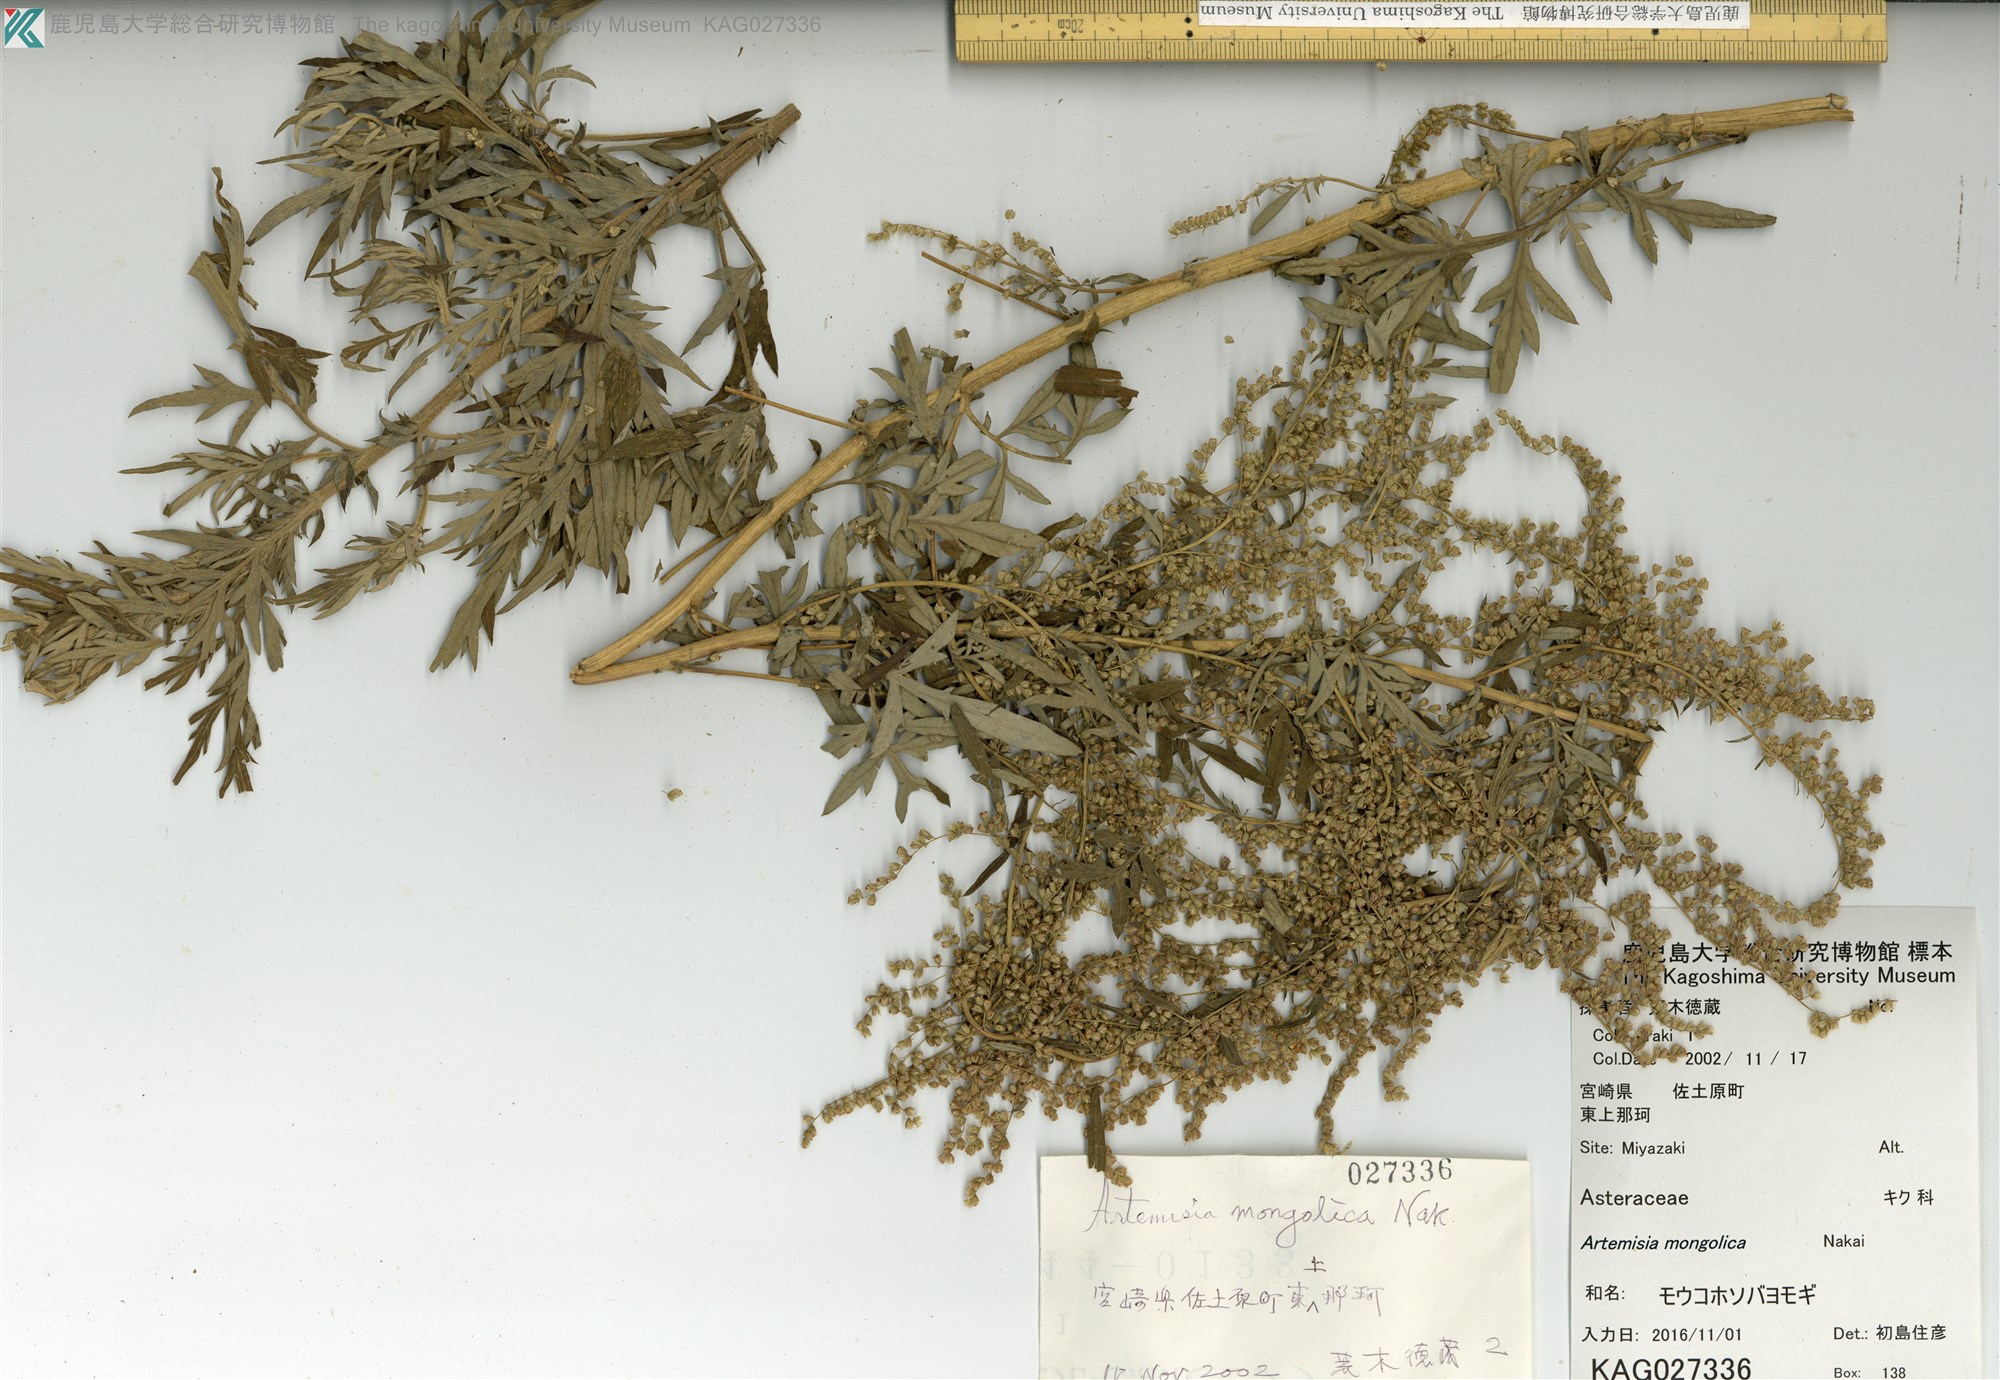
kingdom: Plantae
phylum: Tracheophyta
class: Magnoliopsida
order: Asterales
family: Asteraceae
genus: Artemisia
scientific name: Artemisia mongolica
